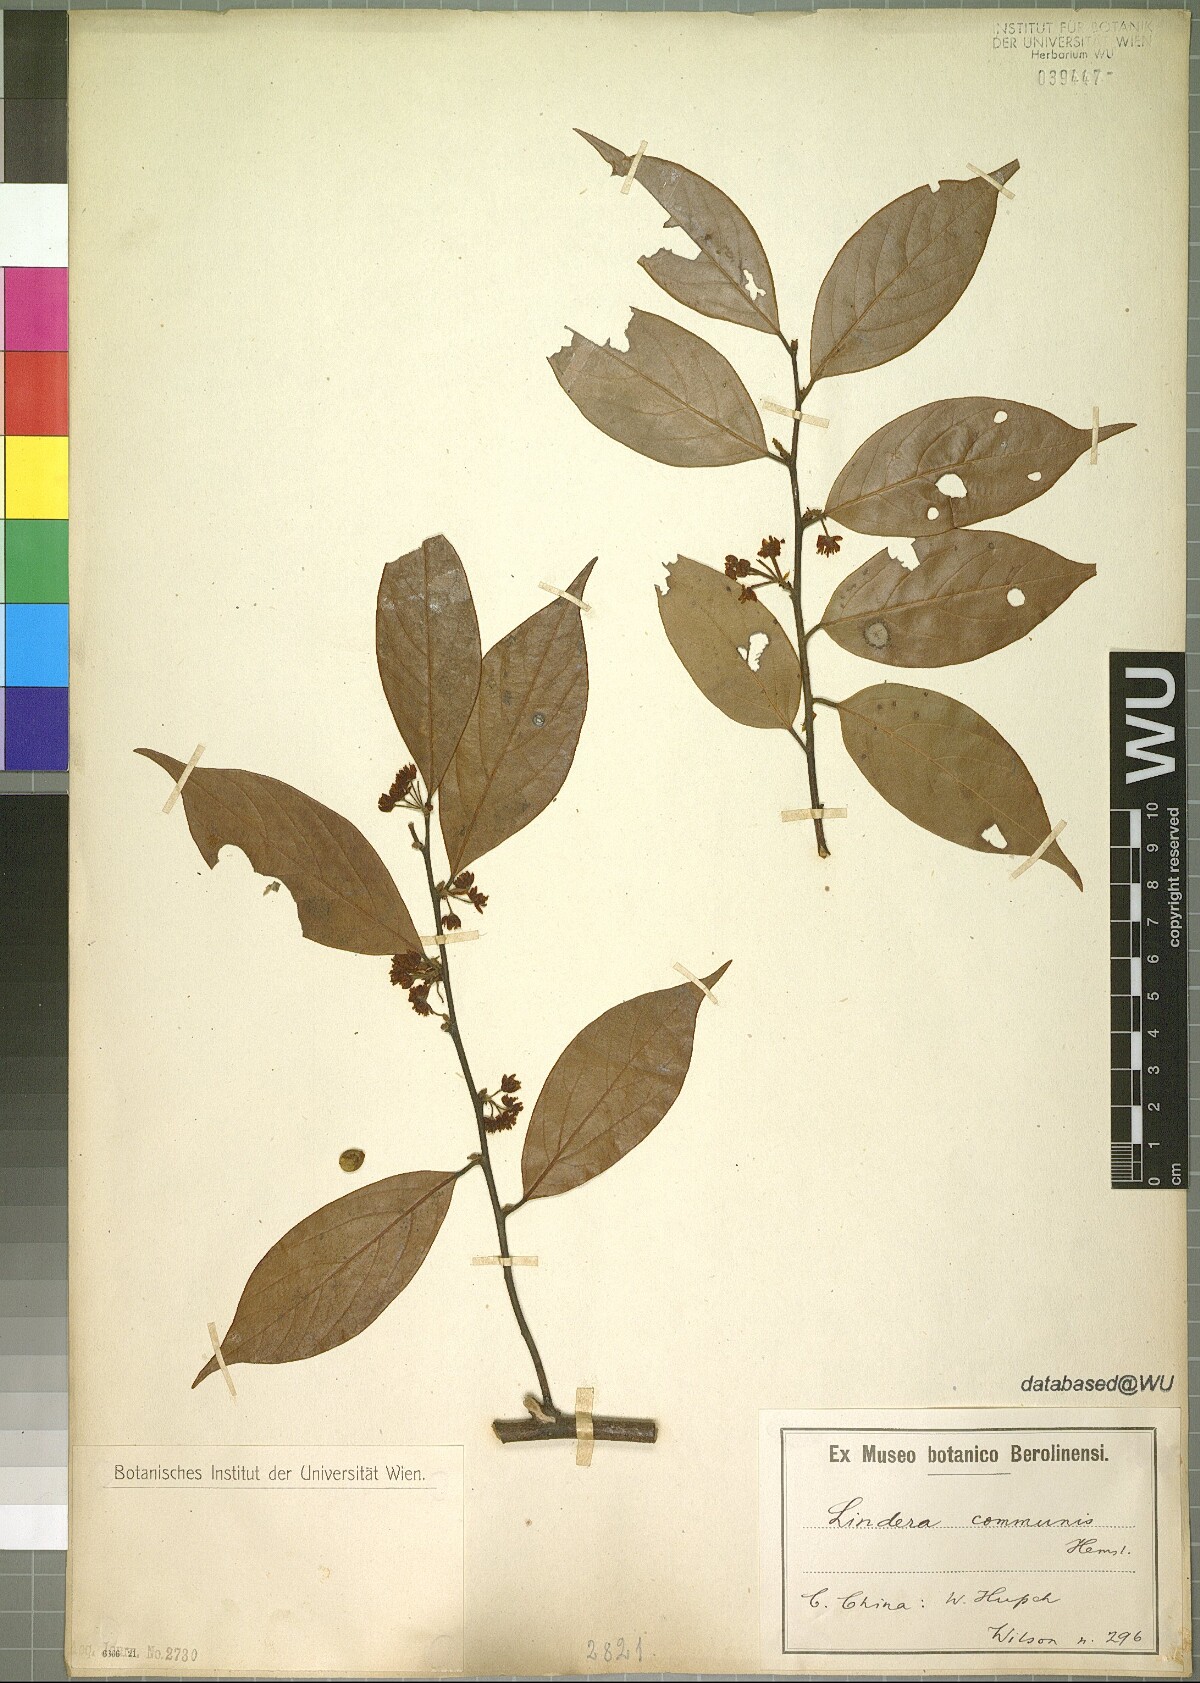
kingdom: Plantae
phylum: Tracheophyta
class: Magnoliopsida
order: Laurales
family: Lauraceae
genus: Lindera
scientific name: Lindera communis
